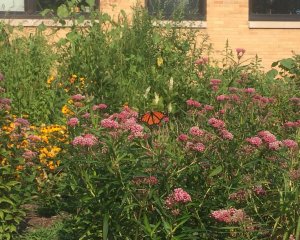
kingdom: Animalia
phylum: Arthropoda
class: Insecta
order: Lepidoptera
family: Nymphalidae
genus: Danaus
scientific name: Danaus plexippus
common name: Monarch
